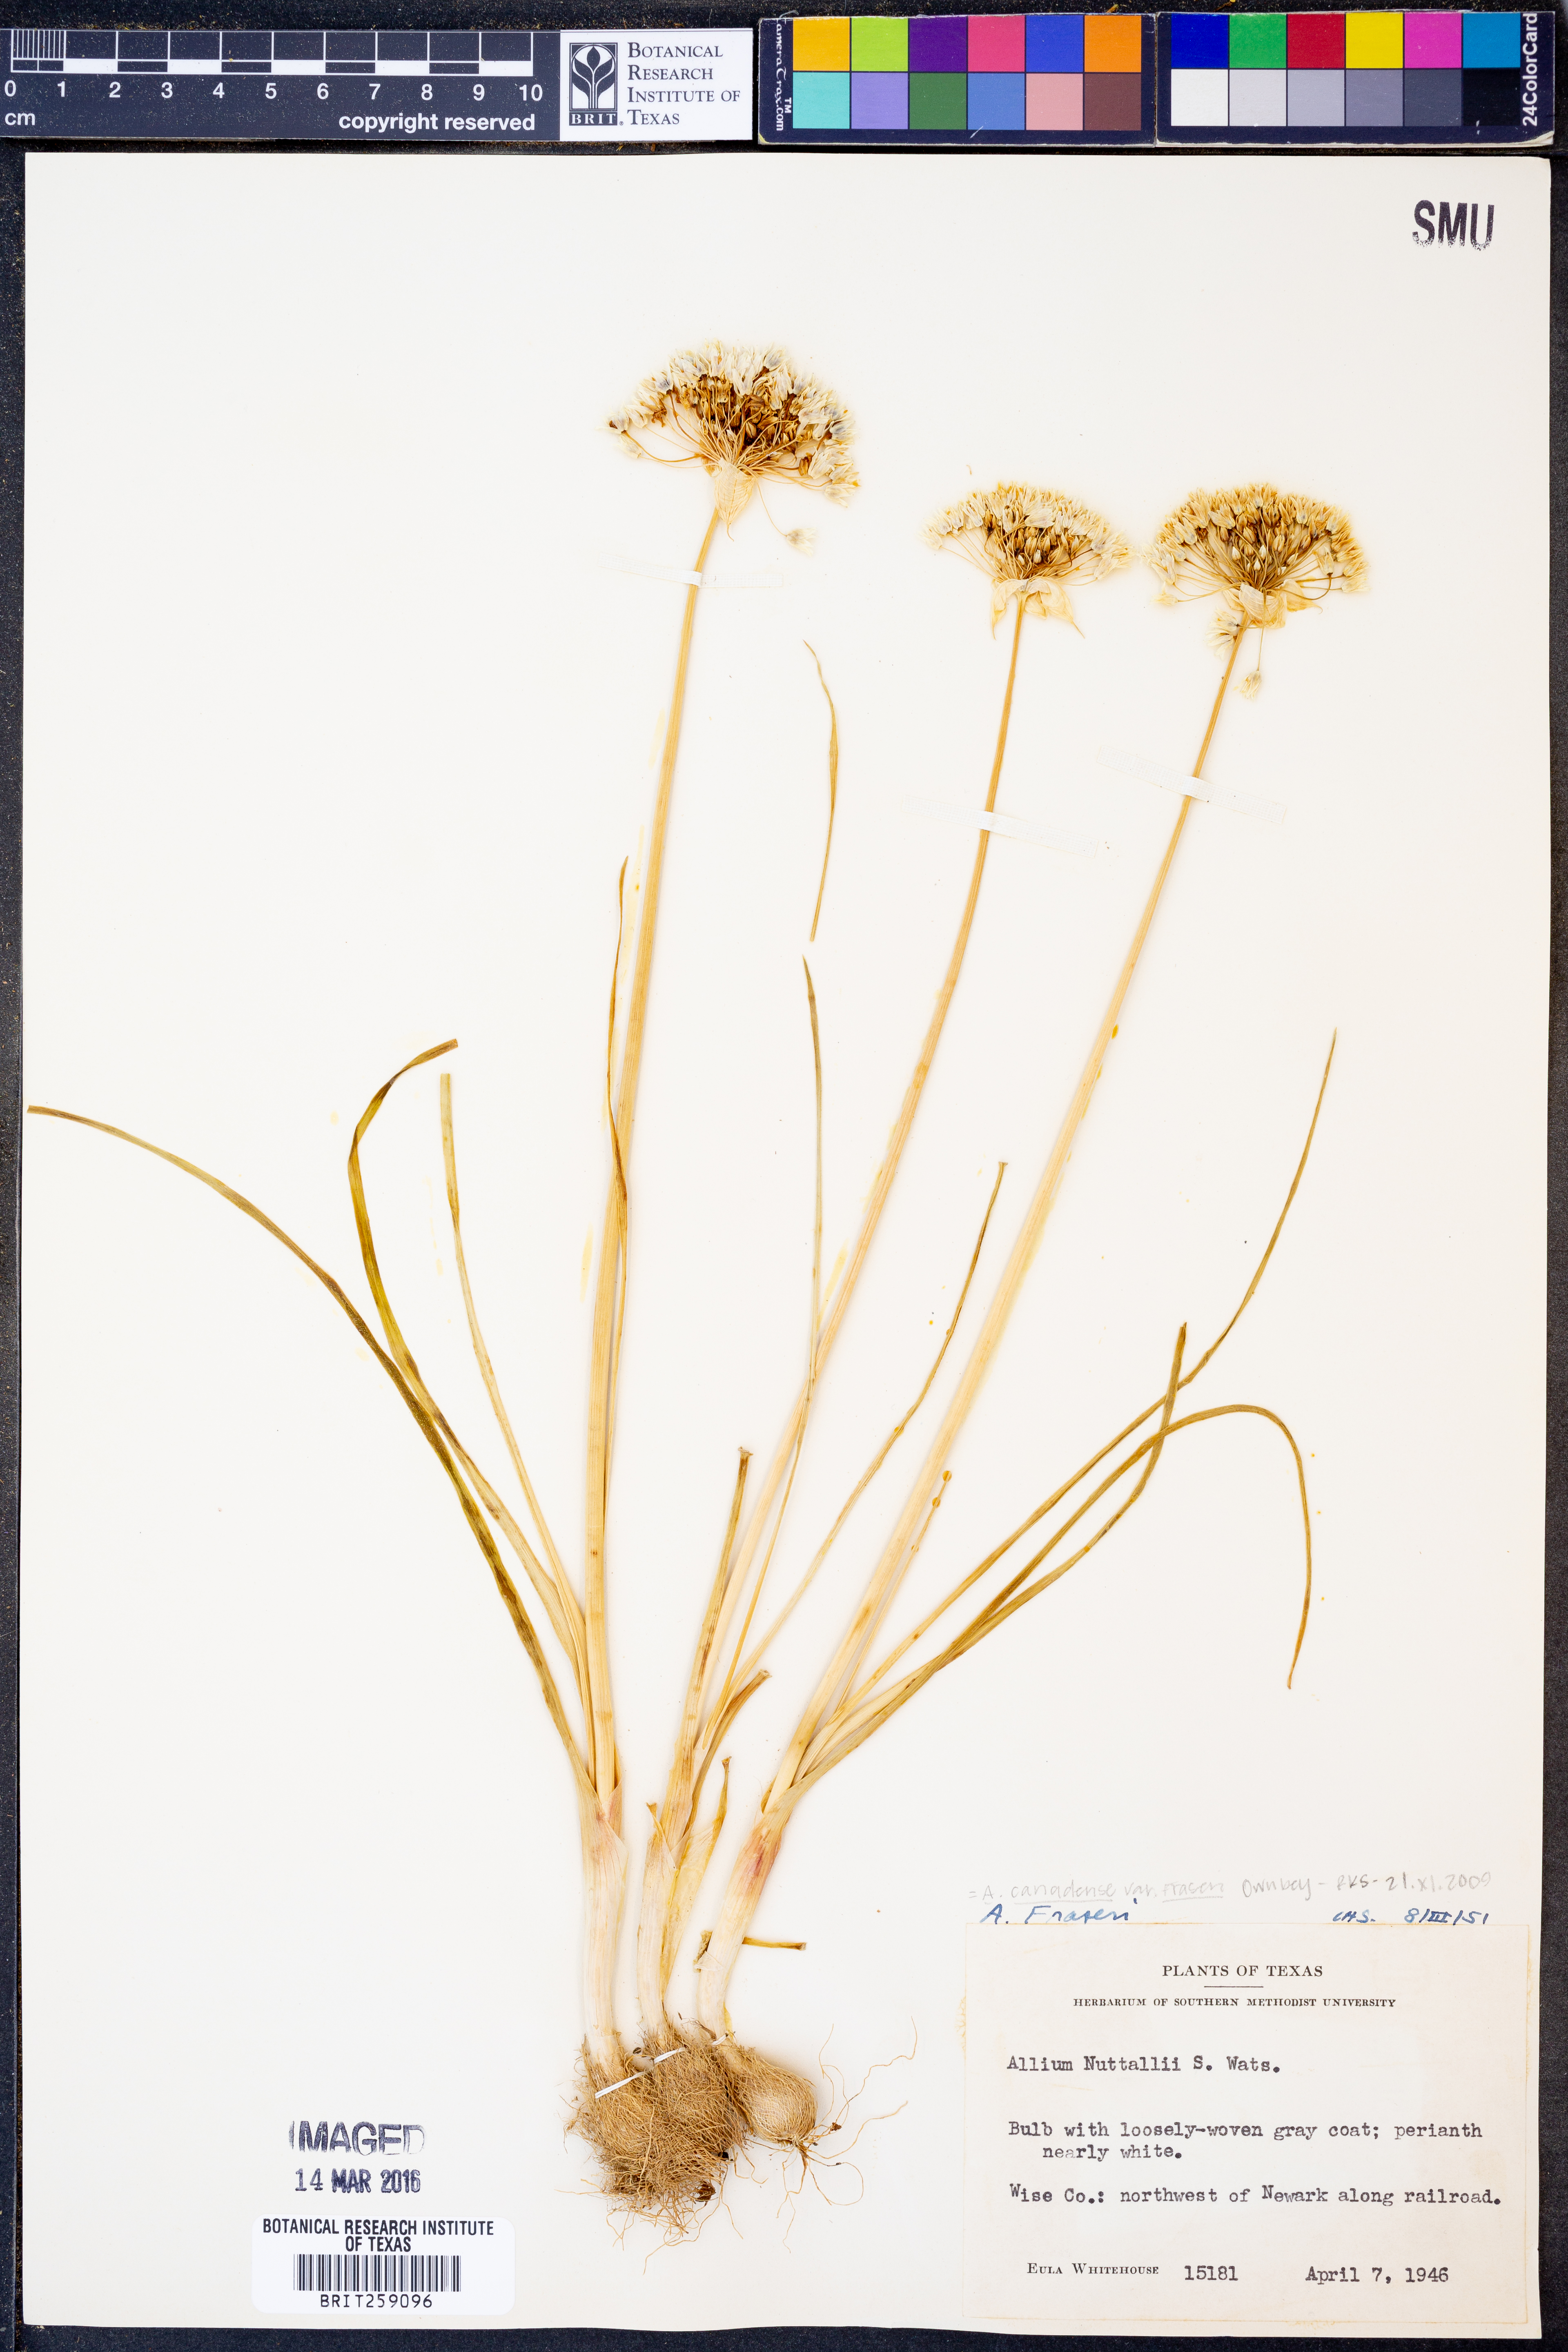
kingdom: Plantae
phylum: Tracheophyta
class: Liliopsida
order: Asparagales
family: Amaryllidaceae
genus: Allium
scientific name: Allium fraseri
